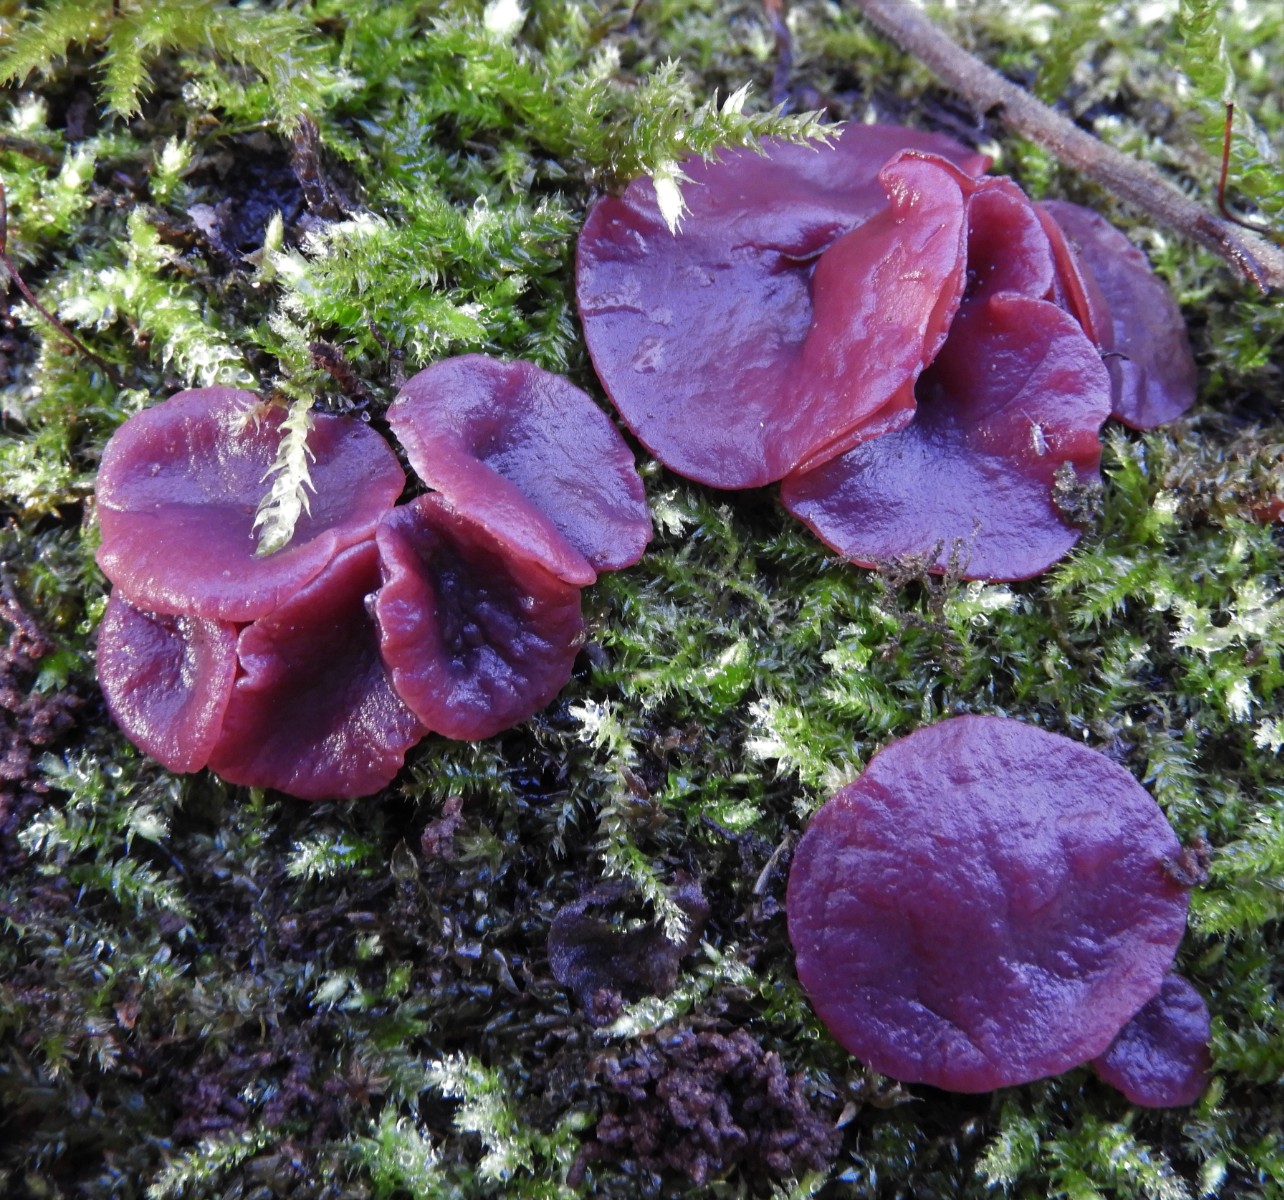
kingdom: Fungi
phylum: Ascomycota
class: Leotiomycetes
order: Helotiales
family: Gelatinodiscaceae
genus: Ascocoryne
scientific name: Ascocoryne cylichnium
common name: stor sejskive
